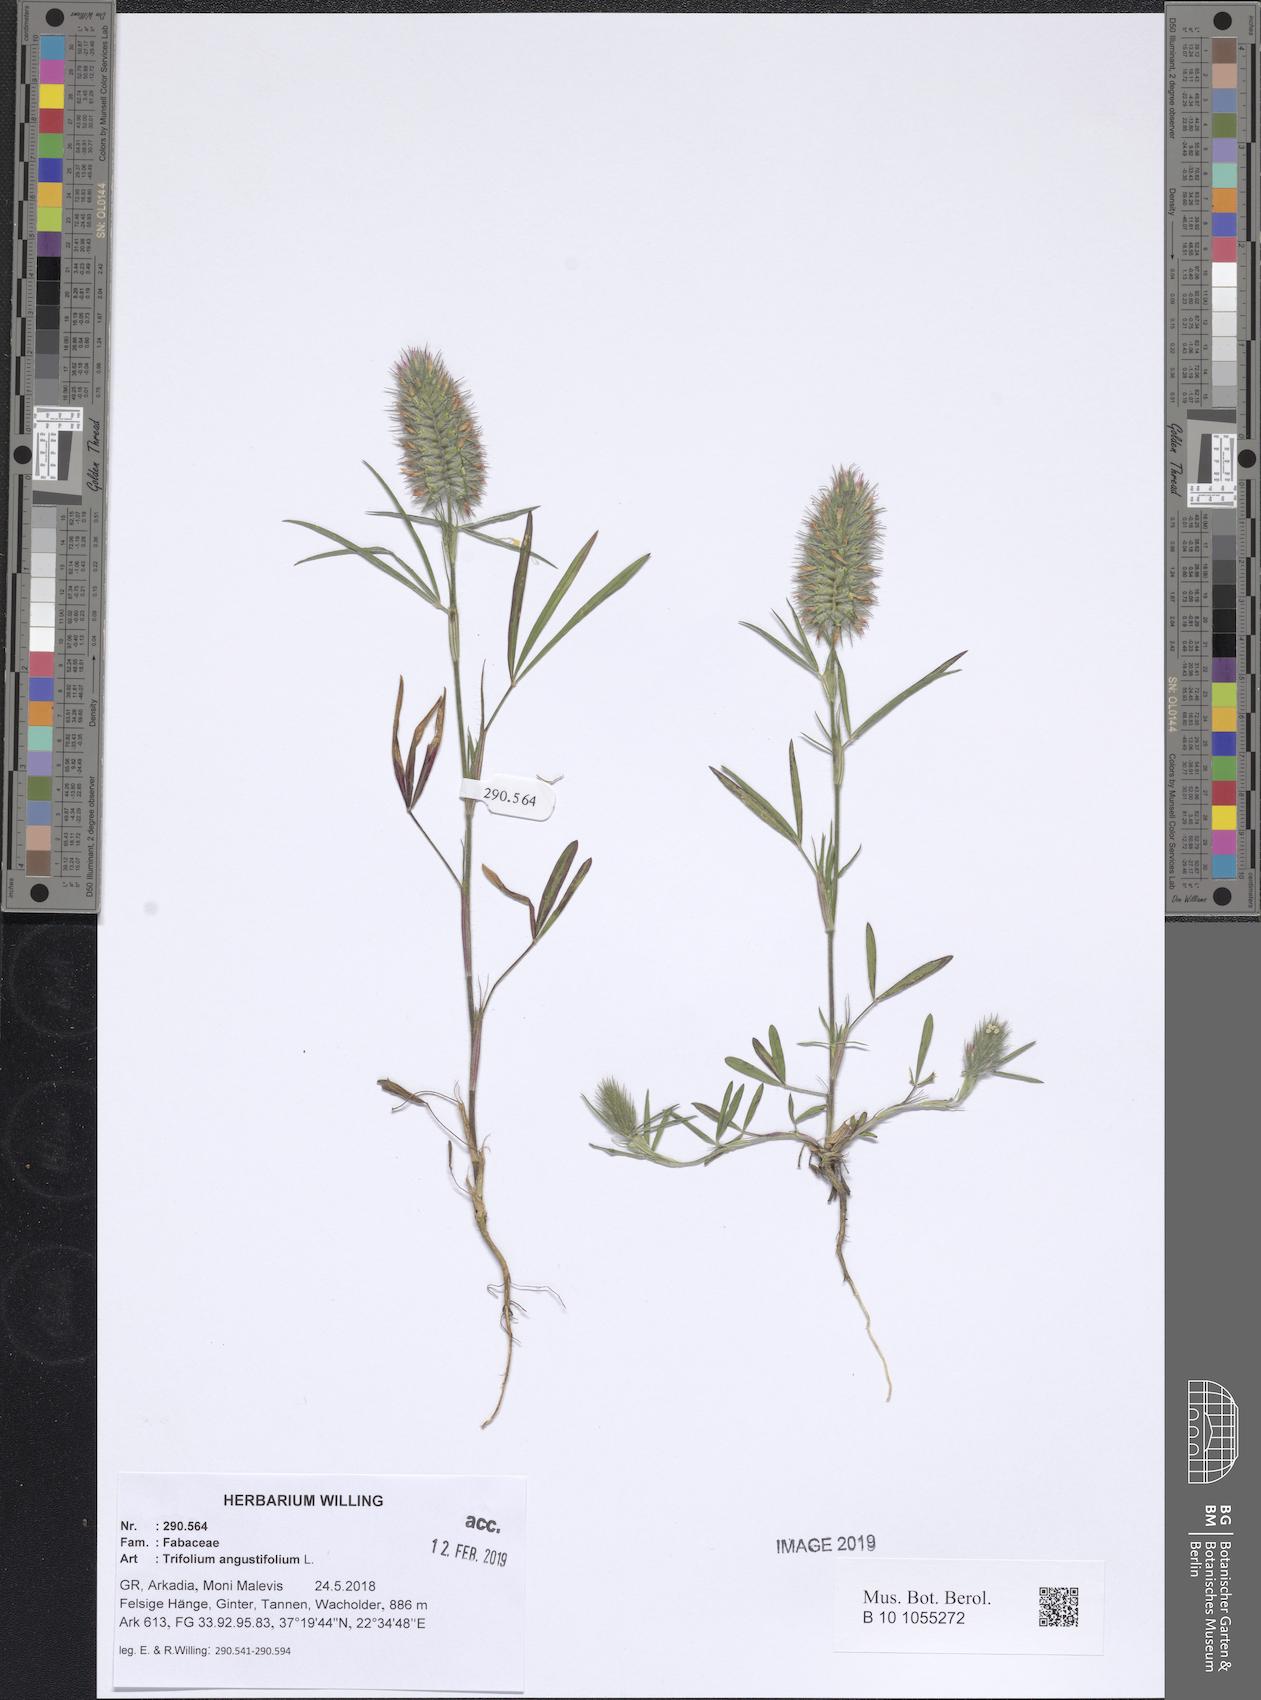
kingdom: Plantae
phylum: Tracheophyta
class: Magnoliopsida
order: Fabales
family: Fabaceae
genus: Trifolium
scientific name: Trifolium angustifolium
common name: Narrow clover
